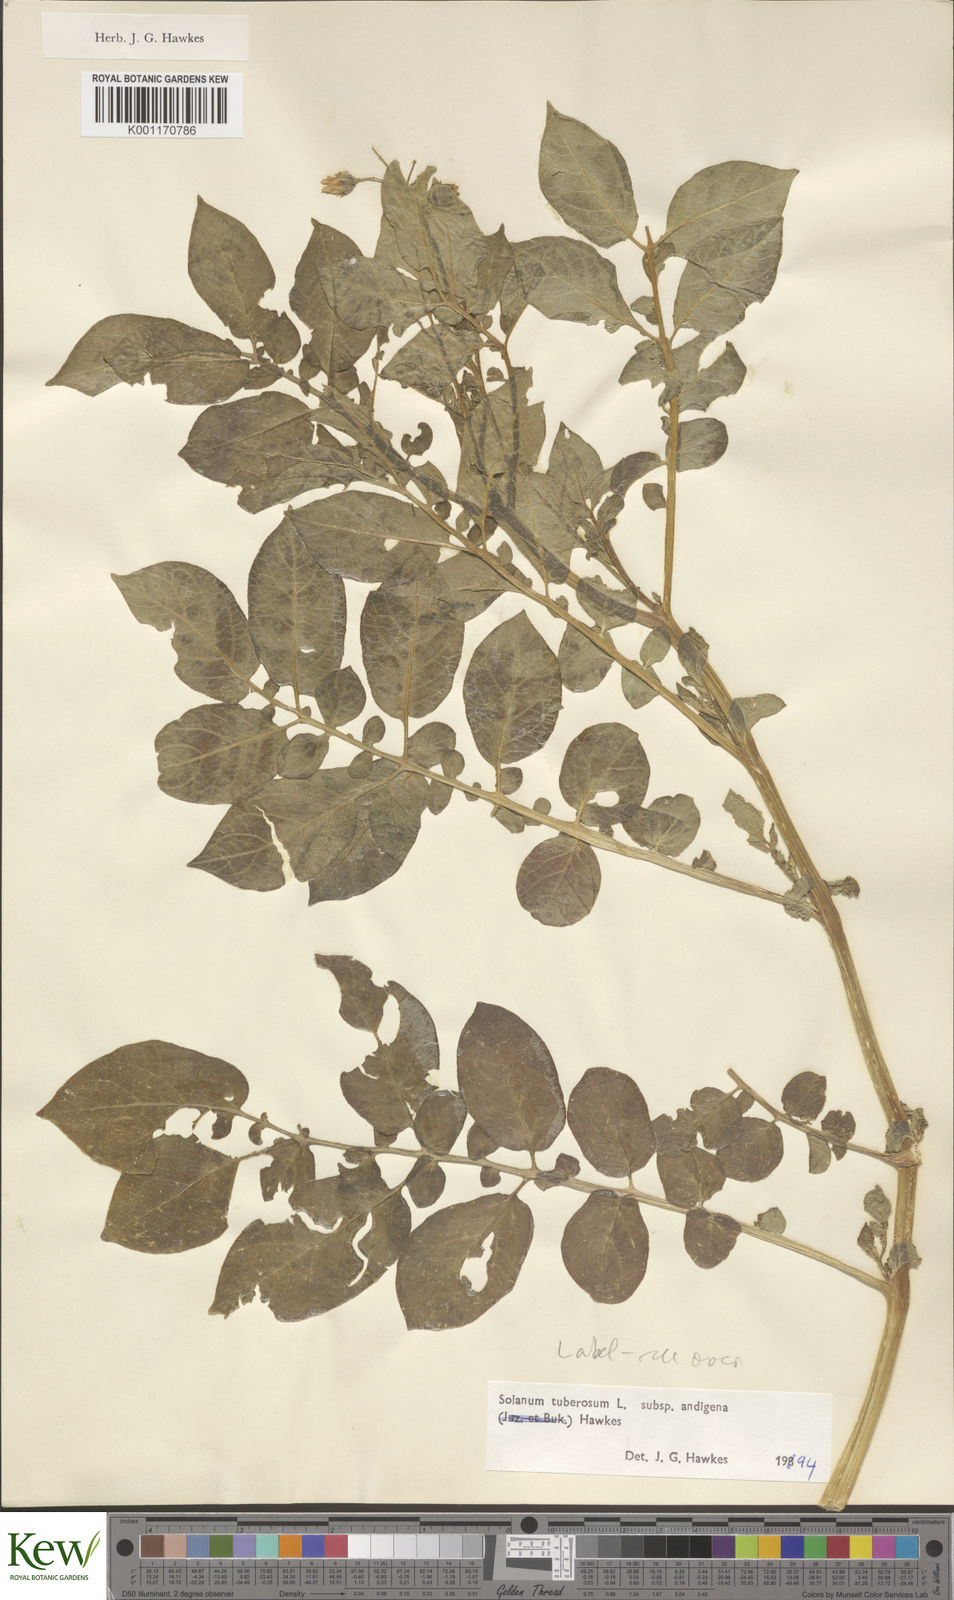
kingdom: Plantae
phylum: Tracheophyta
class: Magnoliopsida
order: Solanales
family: Solanaceae
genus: Solanum
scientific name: Solanum tuberosum
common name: Potato
